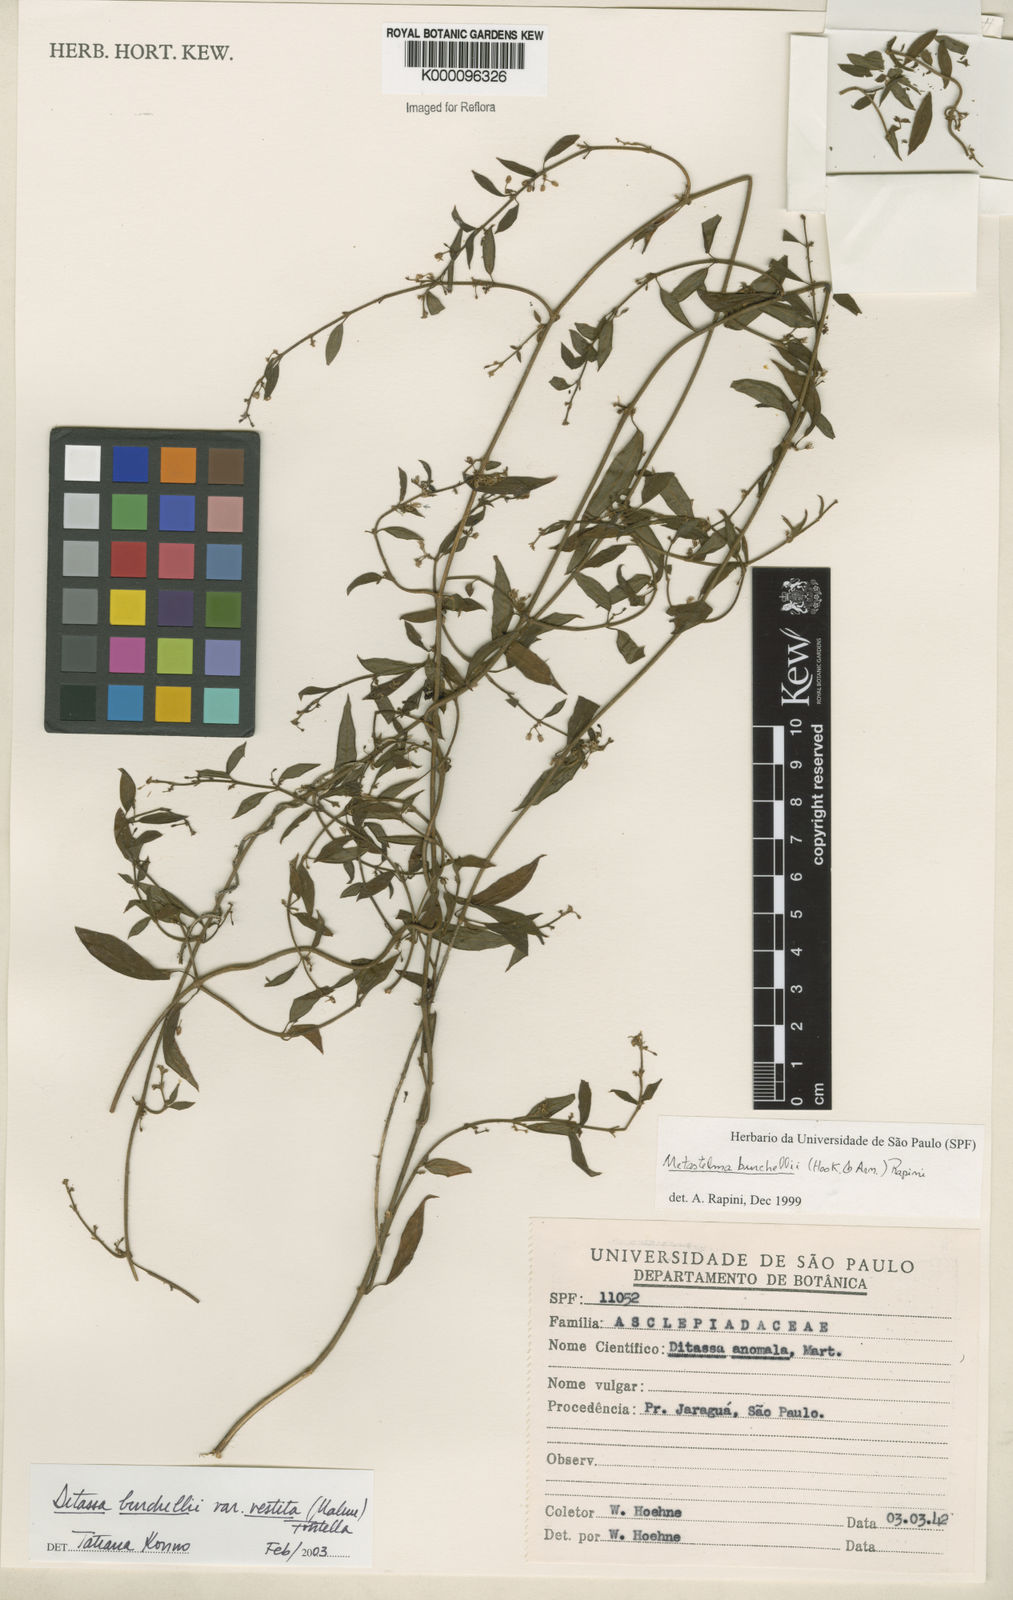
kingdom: Plantae
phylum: Tracheophyta
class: Magnoliopsida
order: Gentianales
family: Apocynaceae
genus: Metastelma
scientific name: Metastelma burchellii
